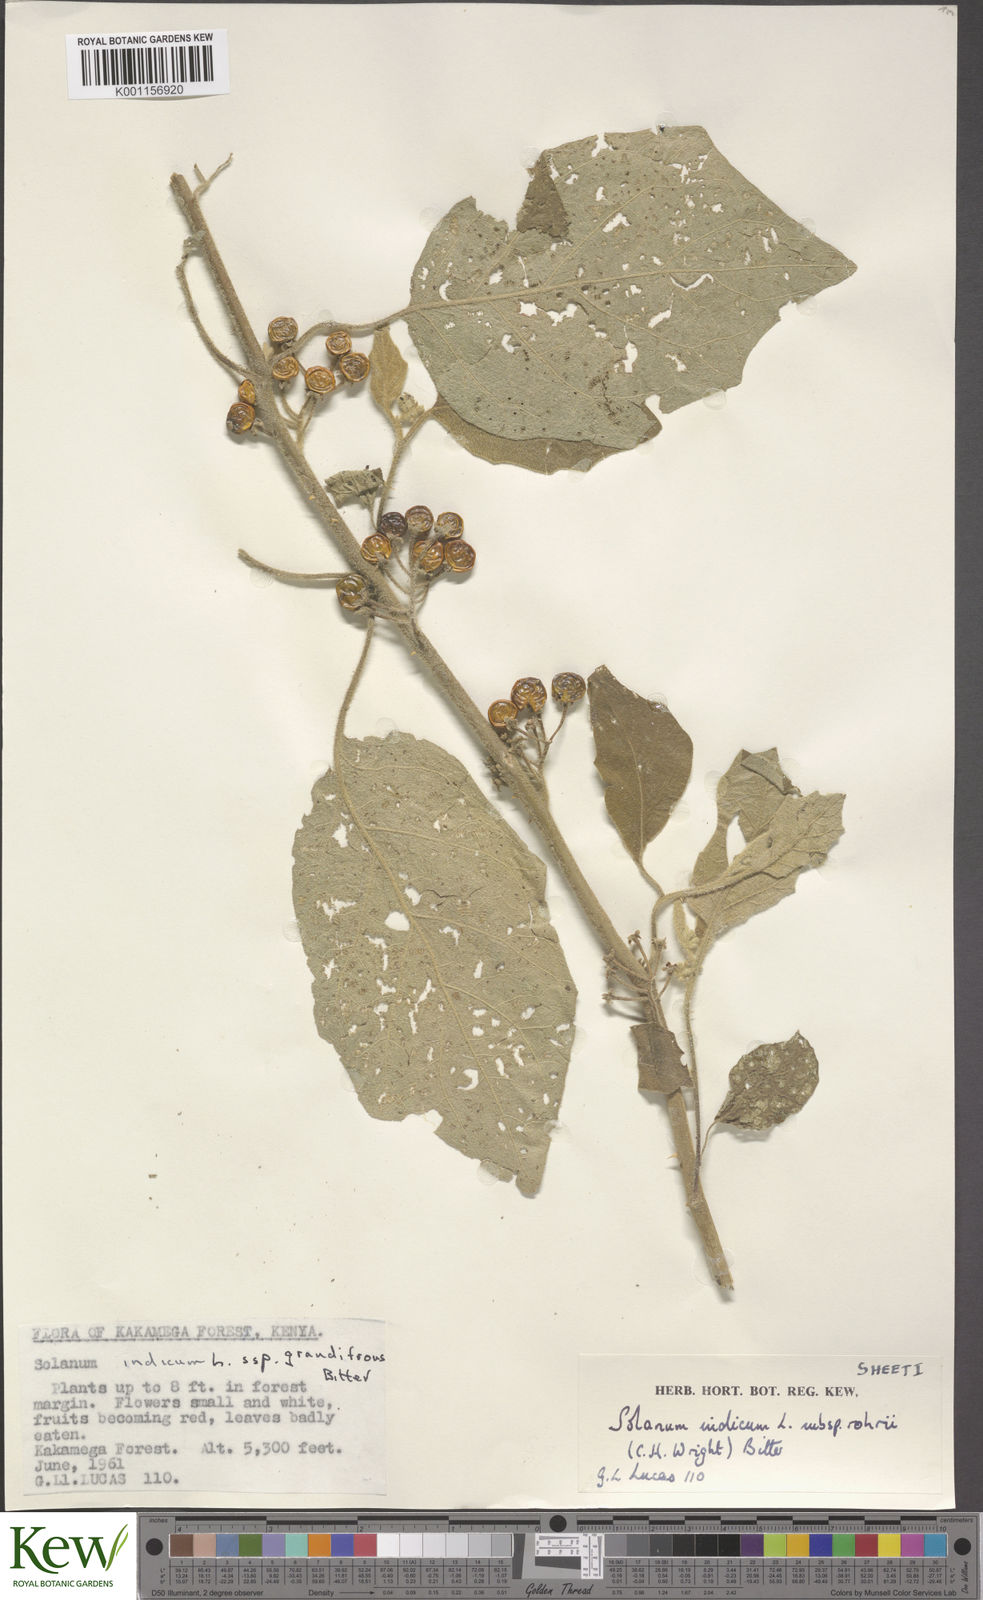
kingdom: Plantae
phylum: Tracheophyta
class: Magnoliopsida
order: Solanales
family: Solanaceae
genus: Solanum
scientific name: Solanum anguivi
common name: Forest bitterberry
